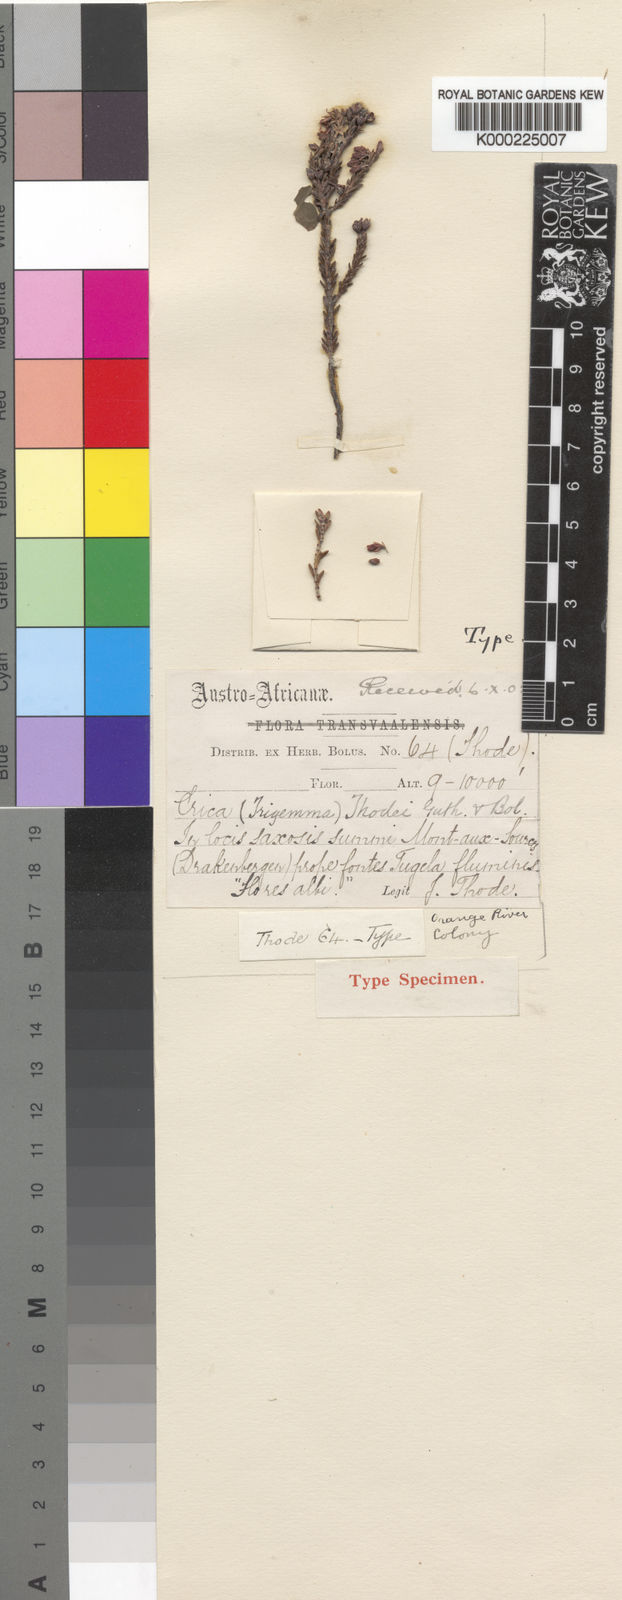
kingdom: Plantae
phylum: Tracheophyta
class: Magnoliopsida
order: Ericales
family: Ericaceae
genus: Erica
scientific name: Erica thodei
